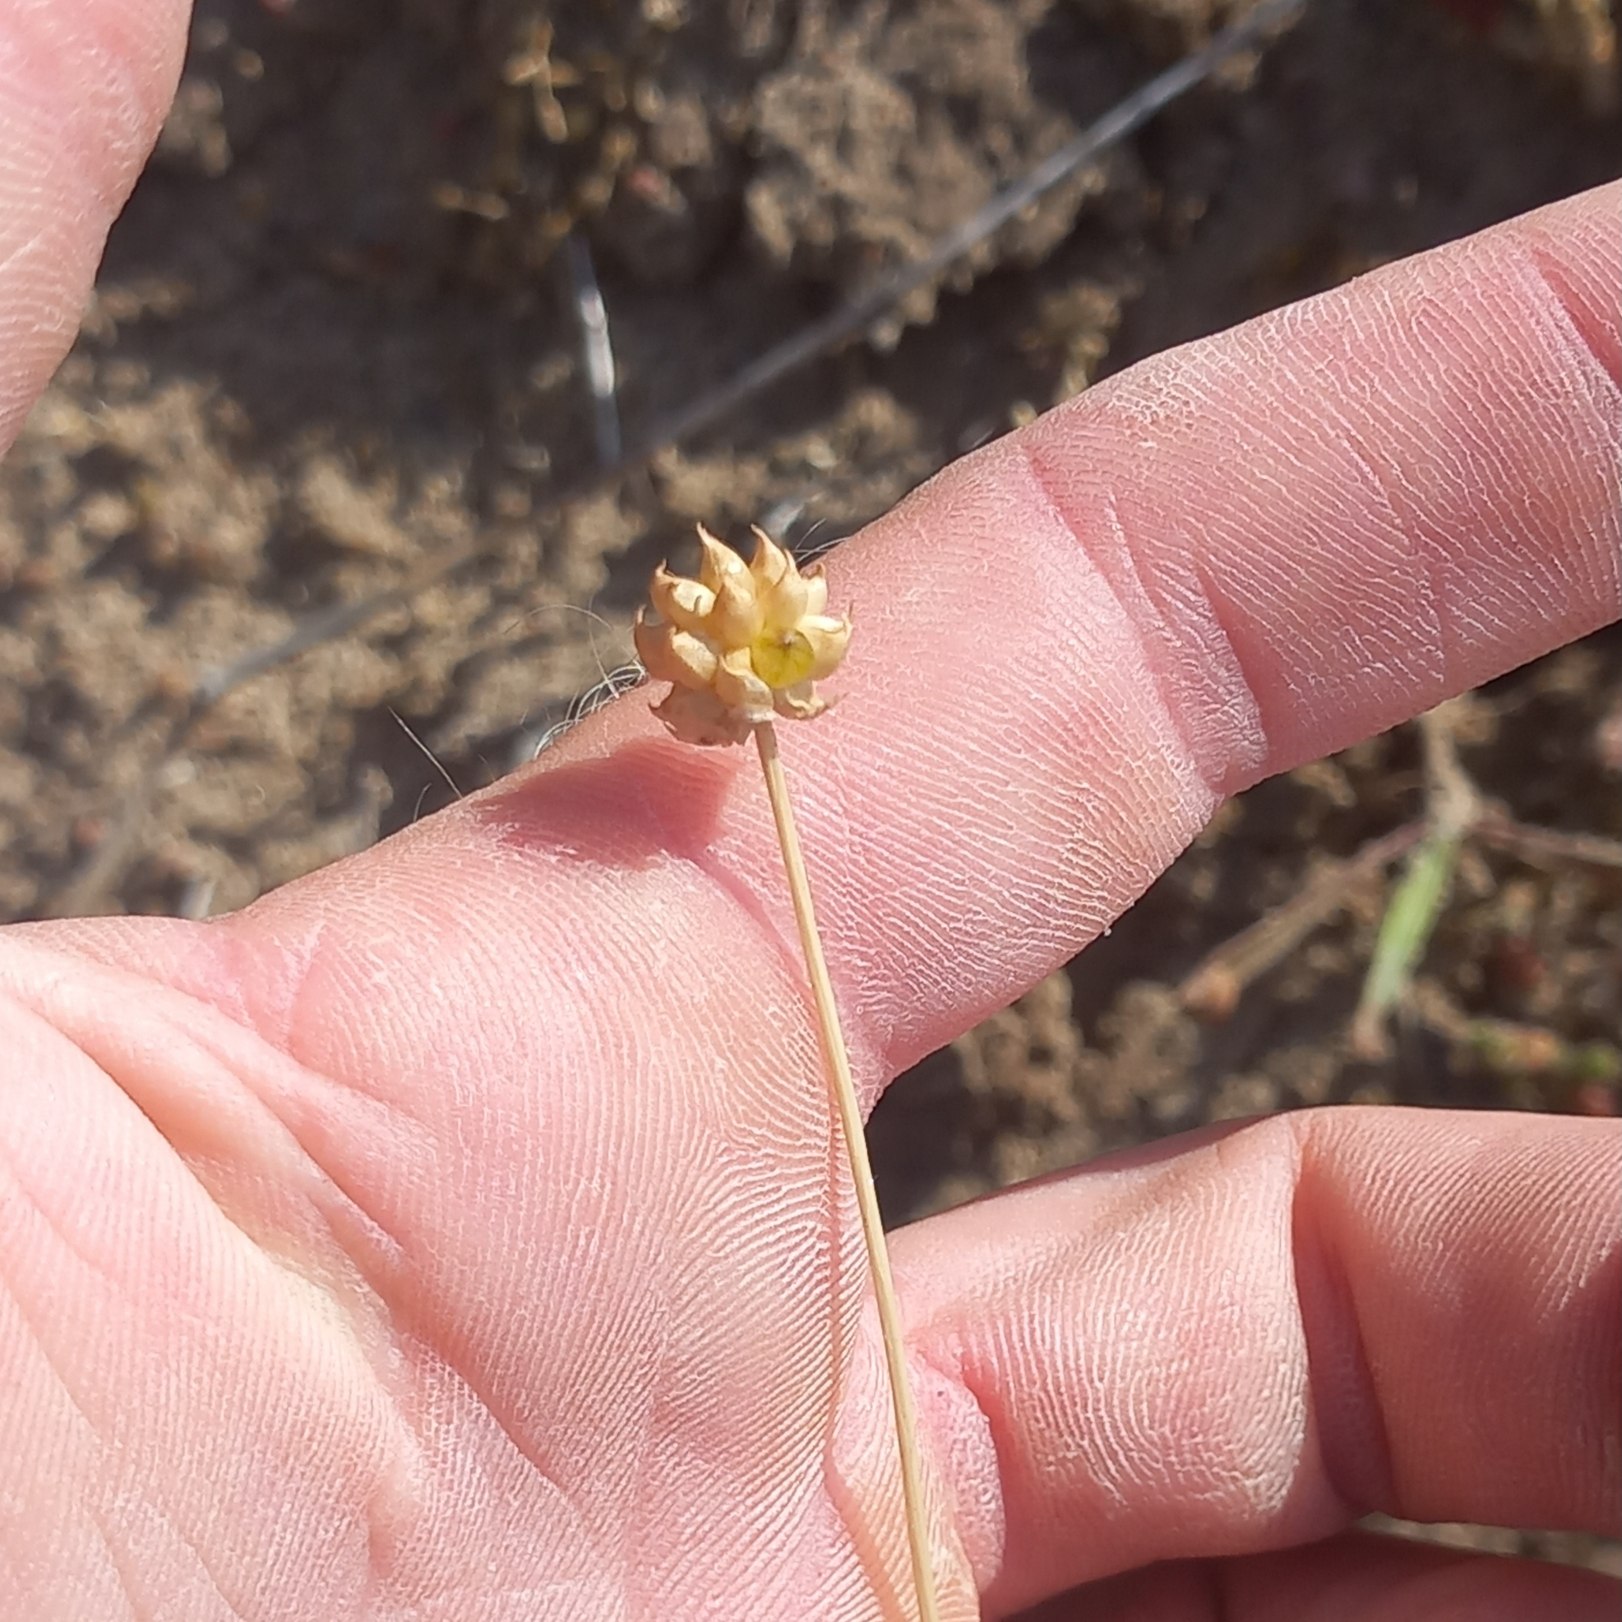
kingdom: Plantae
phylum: Tracheophyta
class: Liliopsida
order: Asparagales
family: Amaryllidaceae
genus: Allium
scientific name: Allium vineale
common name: Sand-løg
